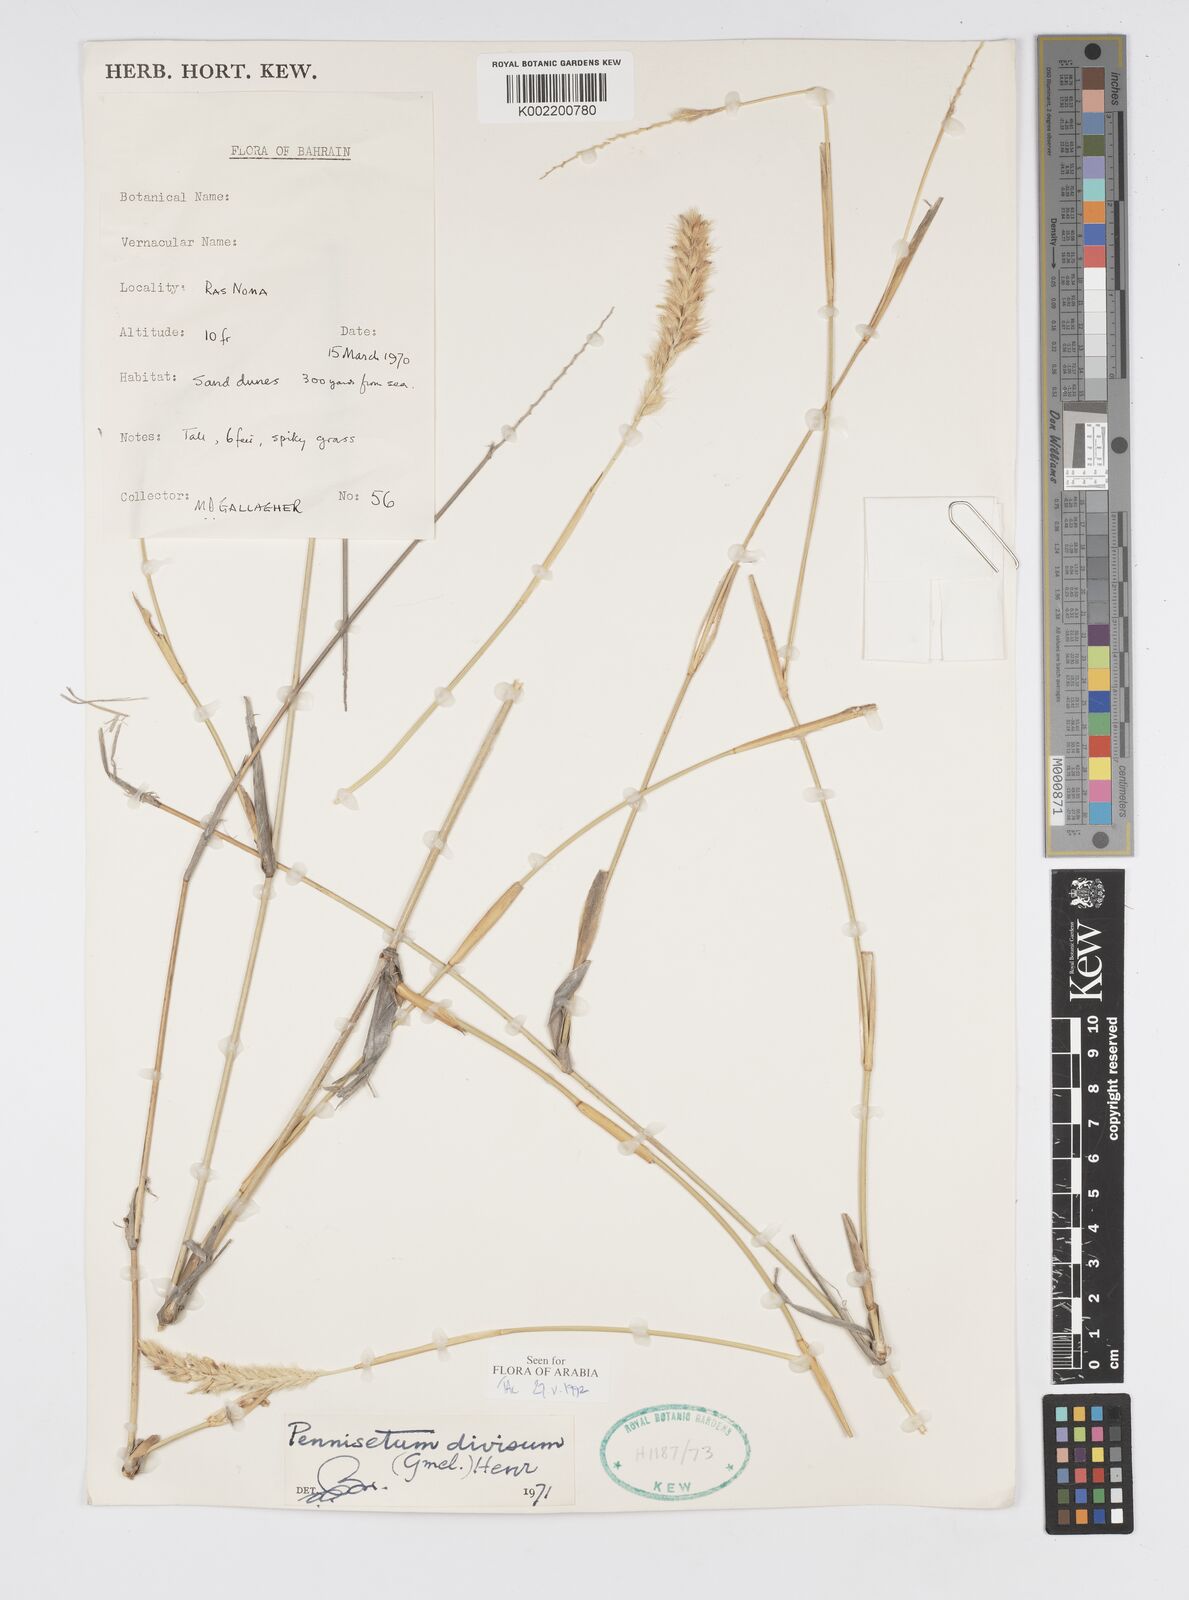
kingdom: Plantae
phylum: Tracheophyta
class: Liliopsida
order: Poales
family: Poaceae
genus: Cenchrus
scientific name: Cenchrus divisus
